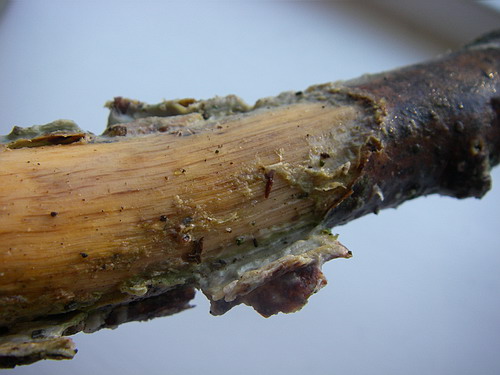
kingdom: Fungi
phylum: Basidiomycota
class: Agaricomycetes
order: Agaricales
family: Radulomycetaceae
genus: Radulomyces
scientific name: Radulomyces confluens
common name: glat naftalinskind
